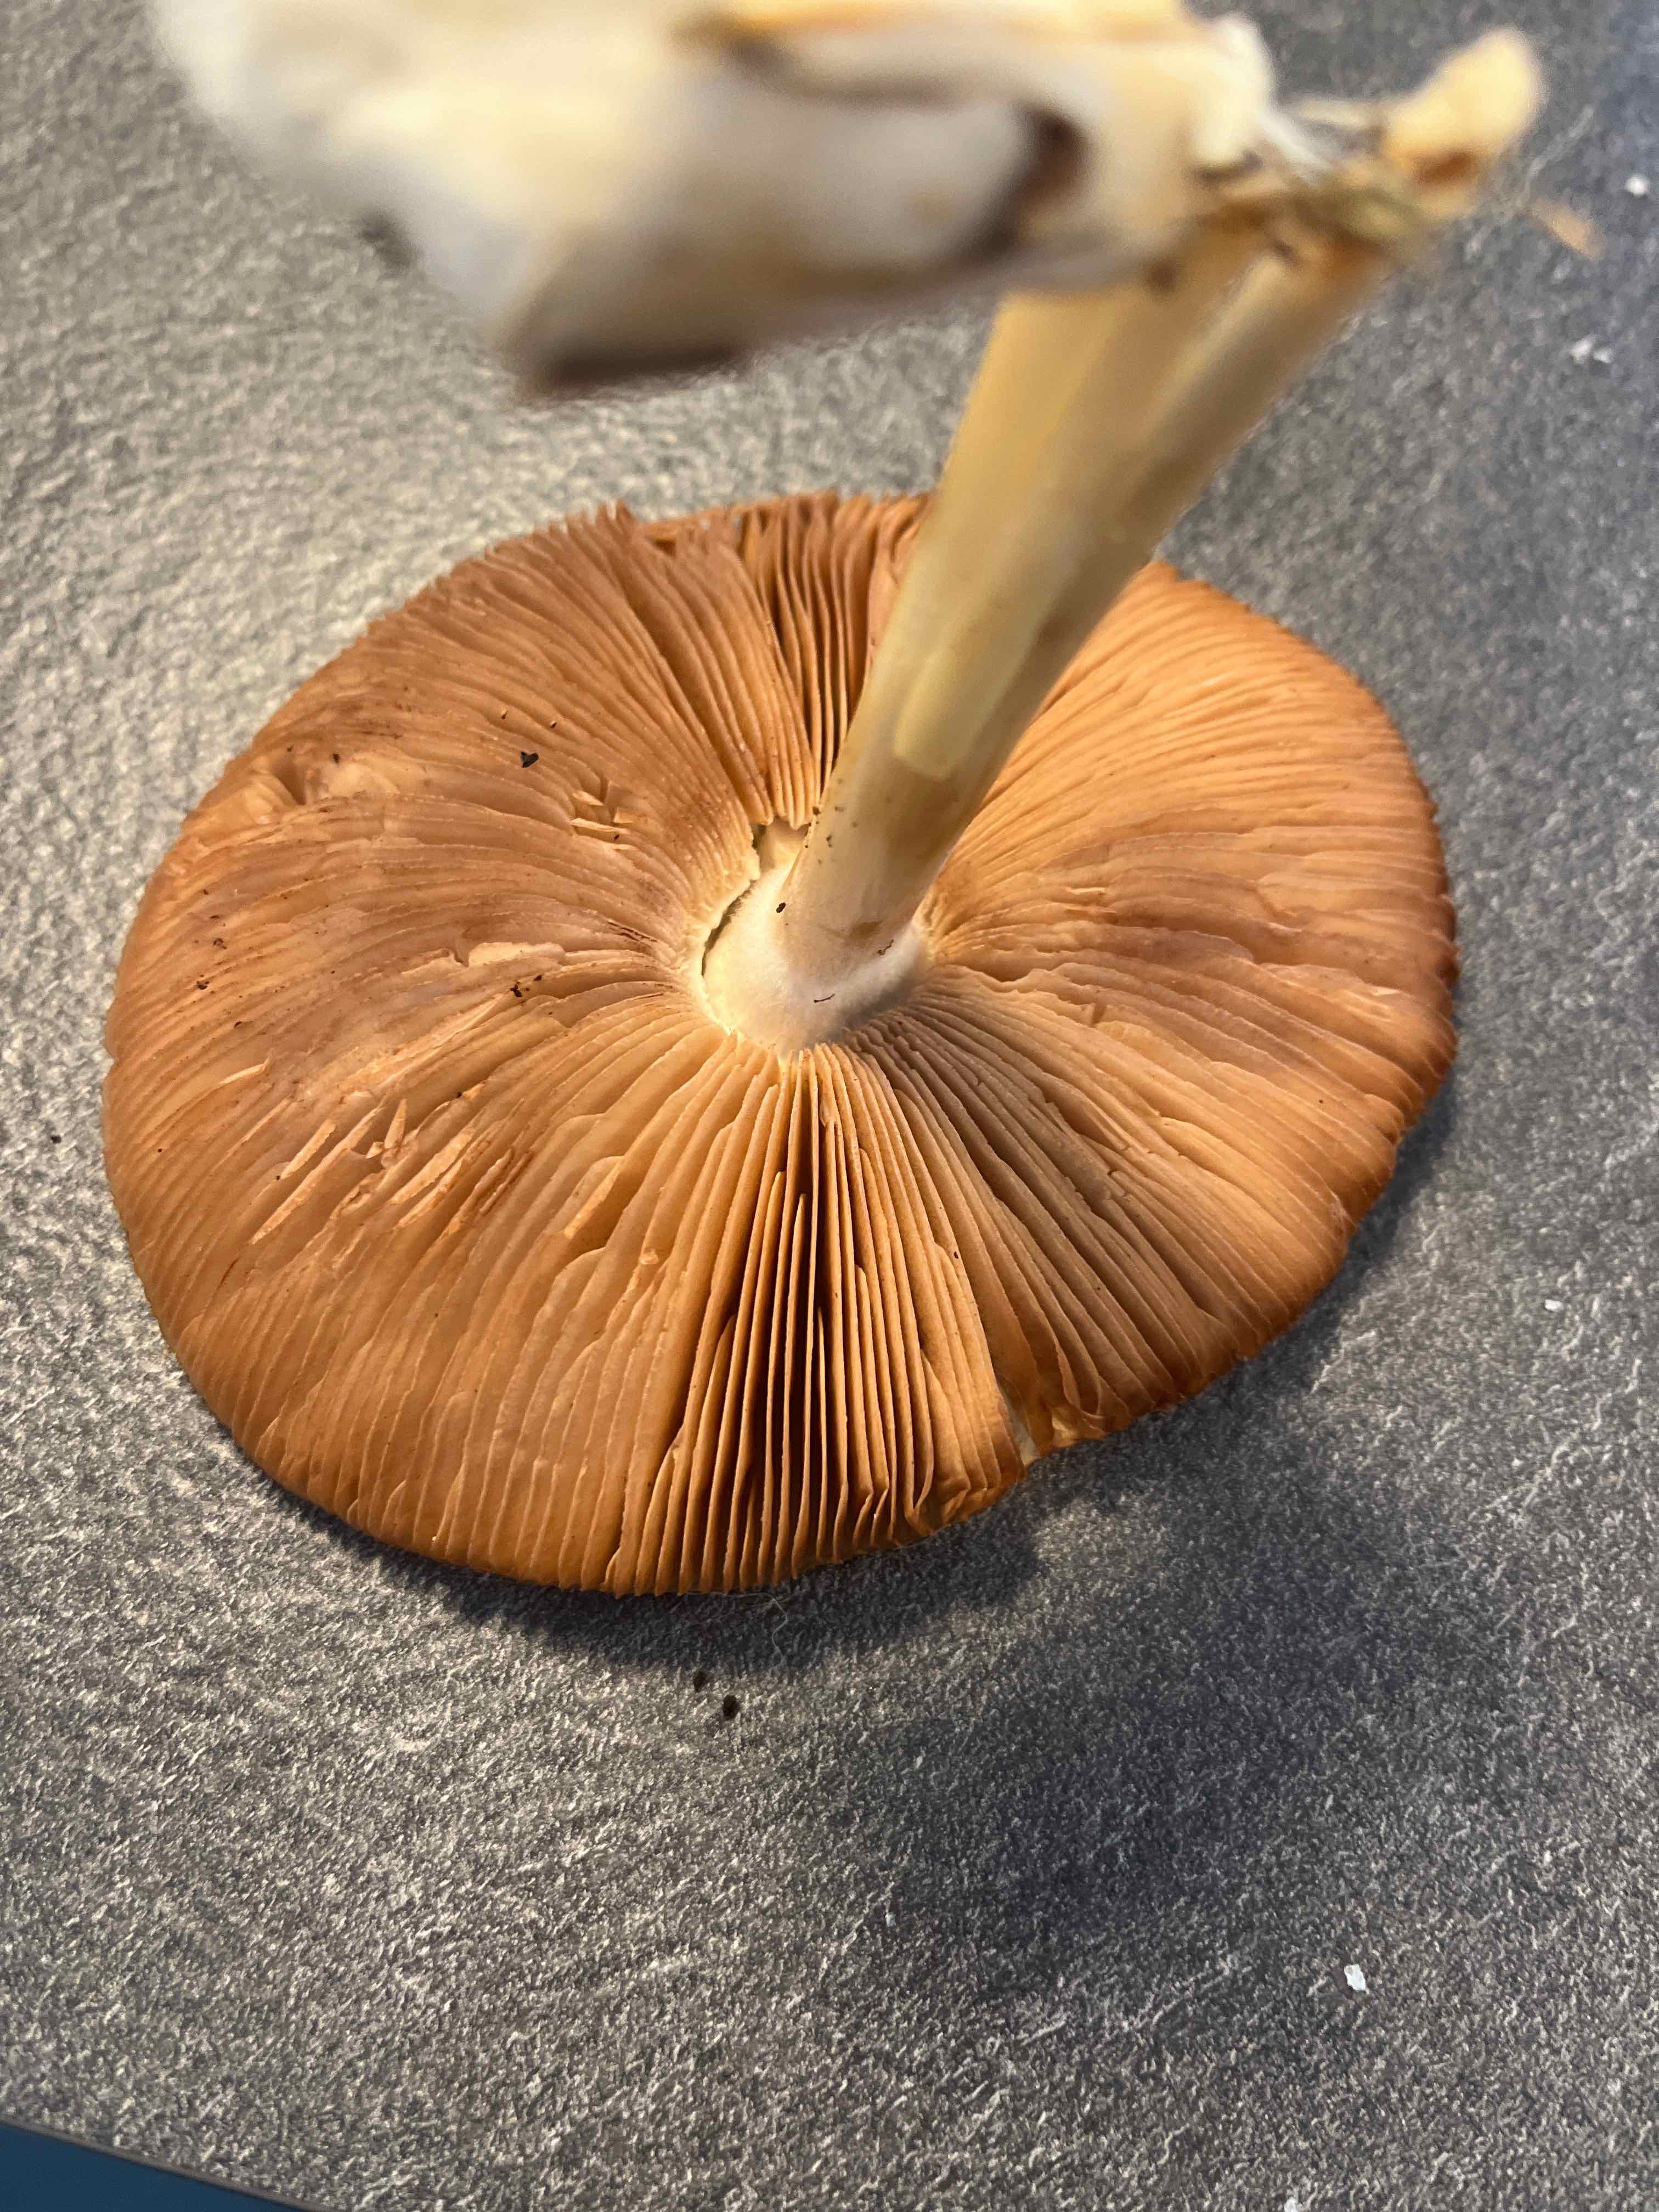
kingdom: Fungi
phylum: Basidiomycota
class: Agaricomycetes
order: Agaricales
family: Pluteaceae
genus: Volvopluteus
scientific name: Volvopluteus gloiocephalus
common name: høj posesvamp
